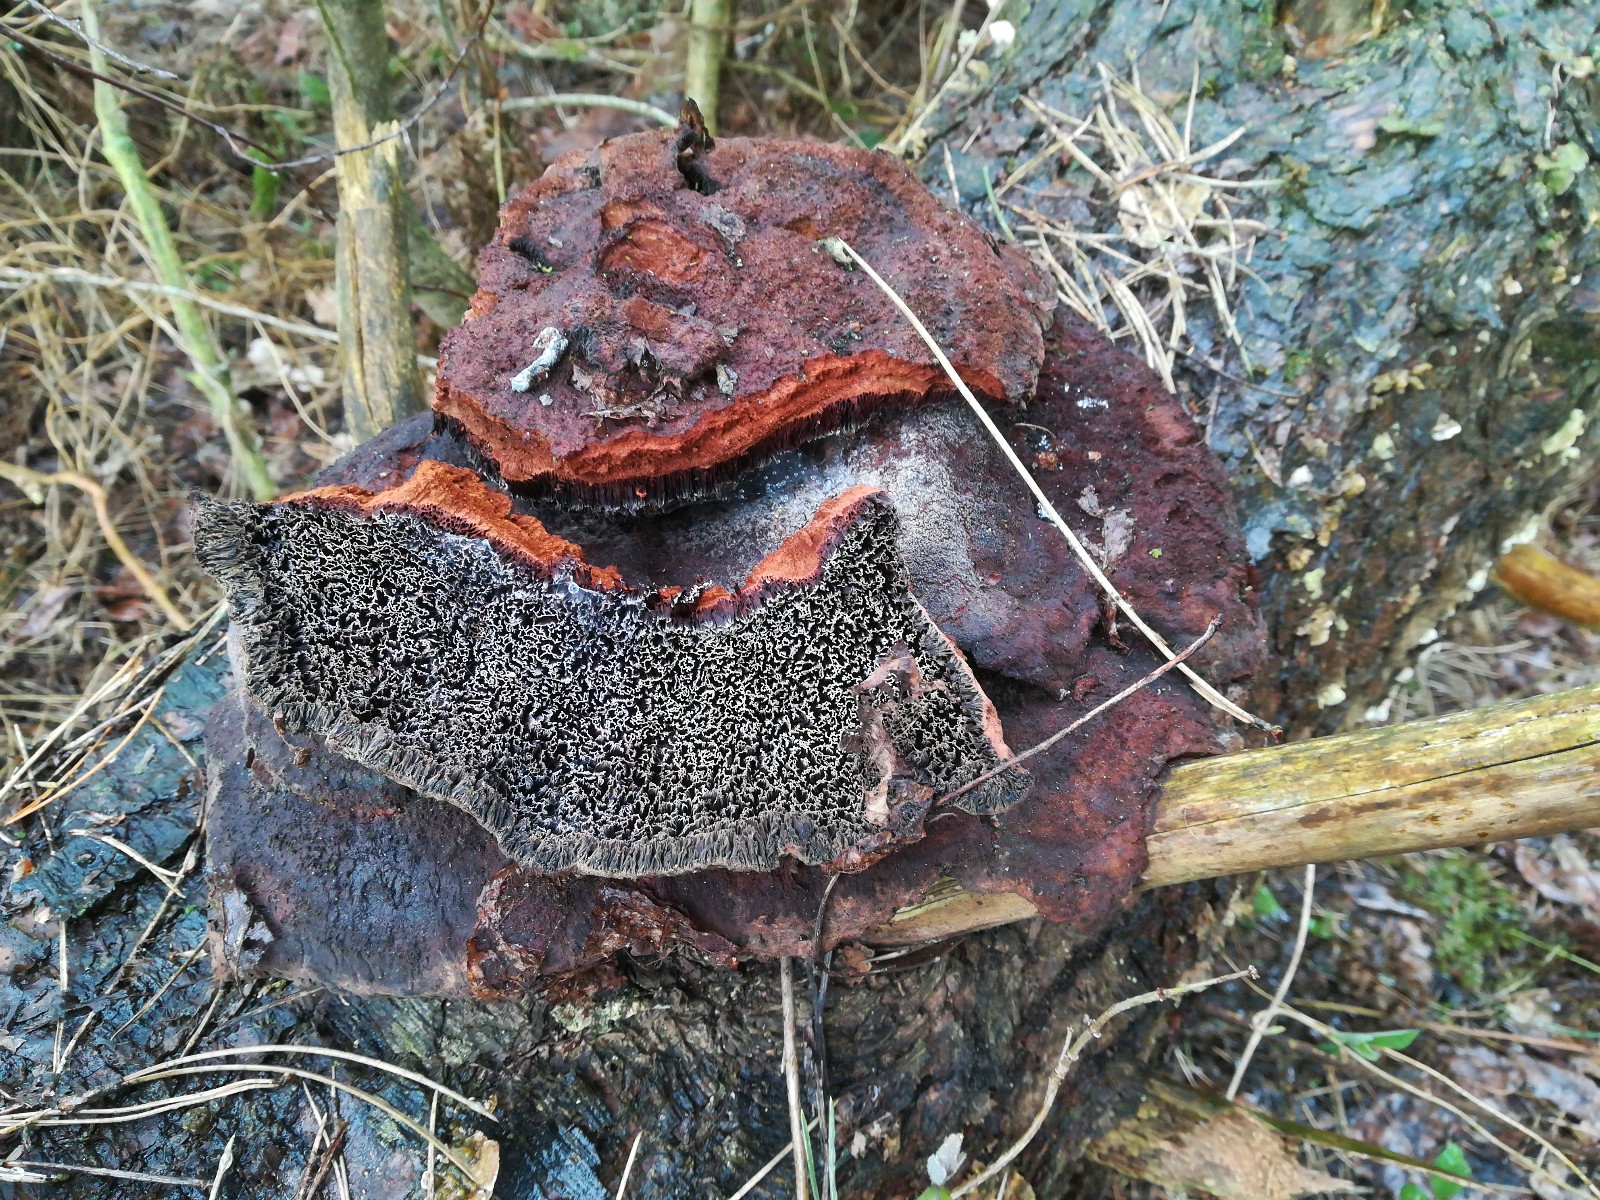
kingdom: Fungi
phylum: Basidiomycota
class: Agaricomycetes
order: Polyporales
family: Laetiporaceae
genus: Phaeolus
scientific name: Phaeolus schweinitzii
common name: brunporesvamp
